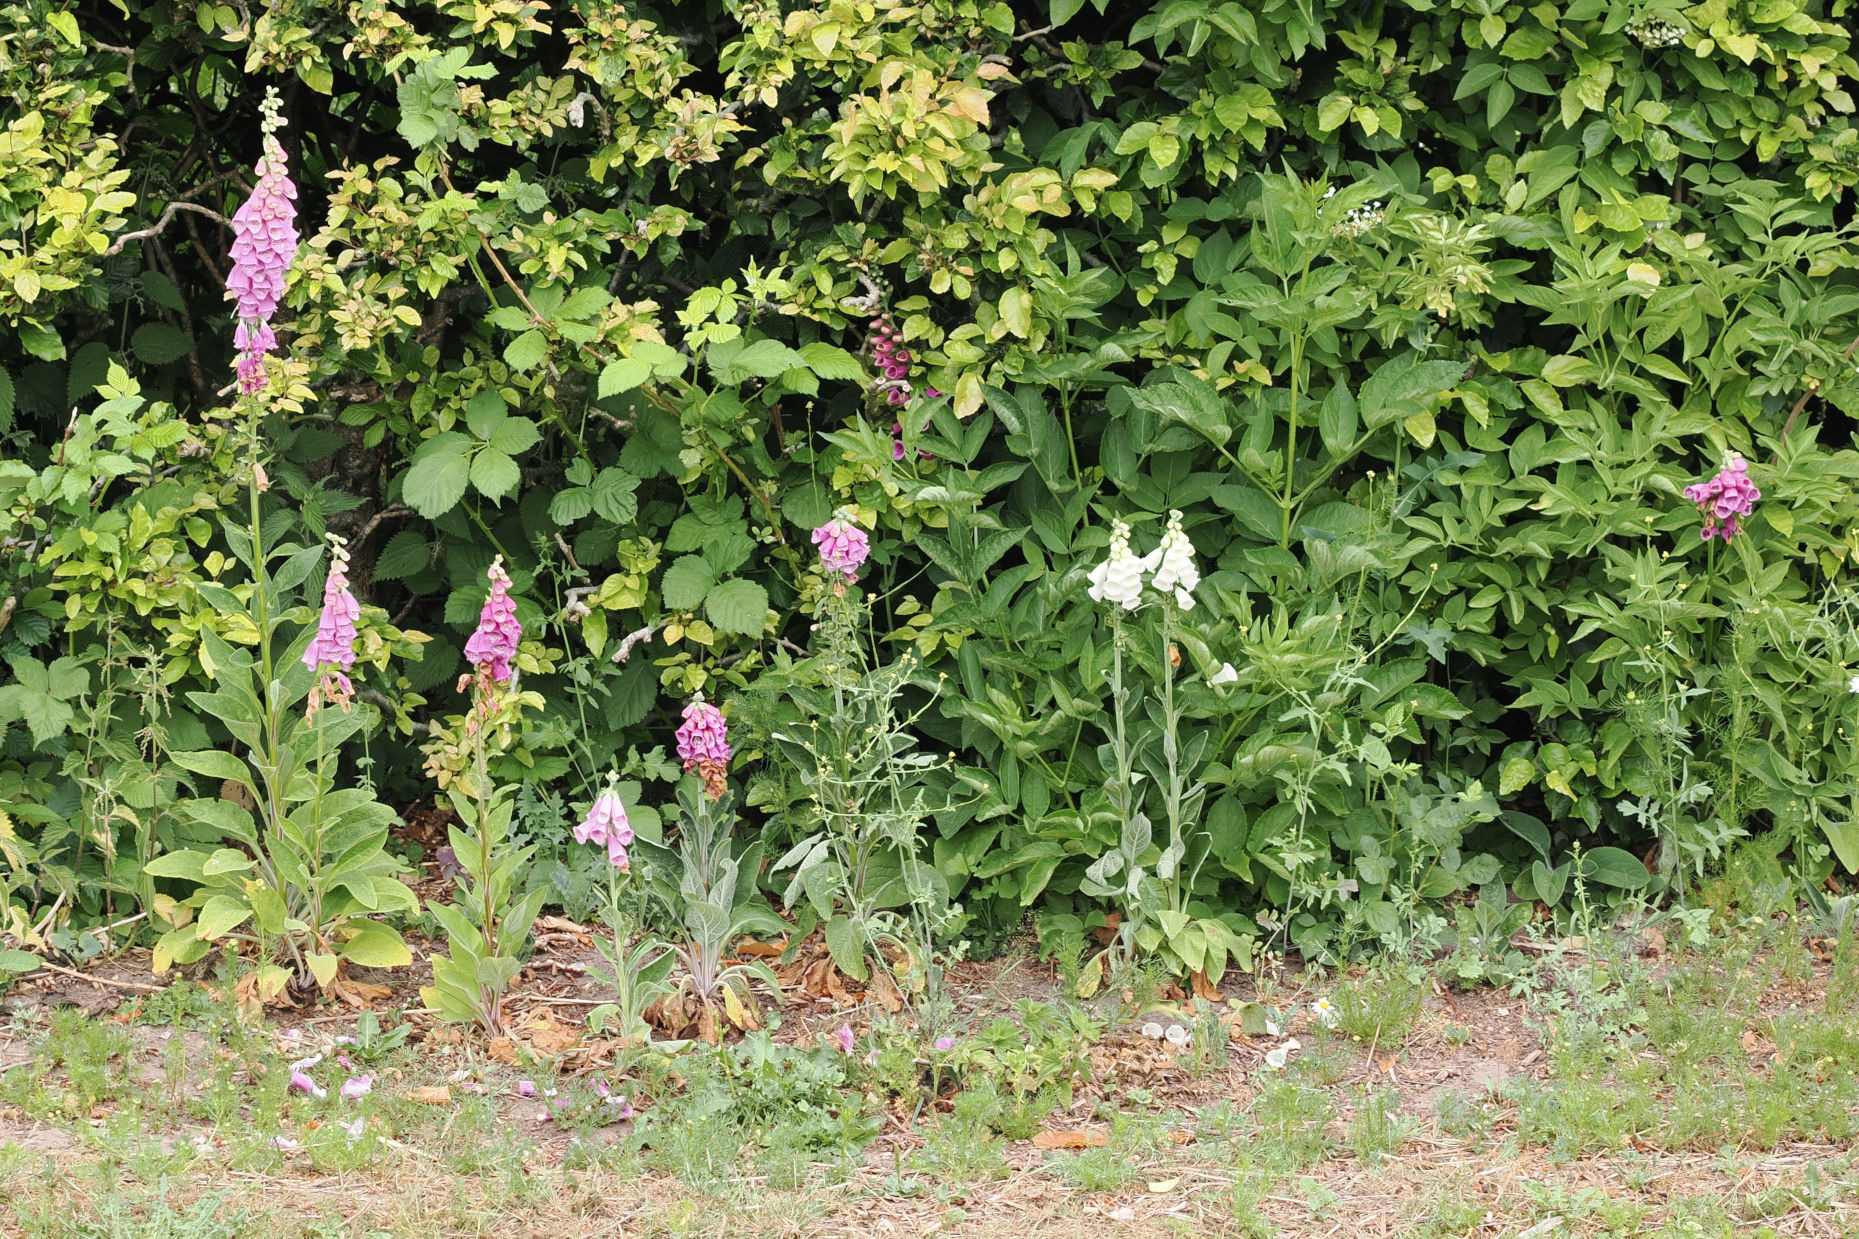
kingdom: Plantae
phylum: Tracheophyta
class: Magnoliopsida
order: Lamiales
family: Plantaginaceae
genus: Digitalis
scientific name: Digitalis purpurea
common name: Almindelig fingerbøl
